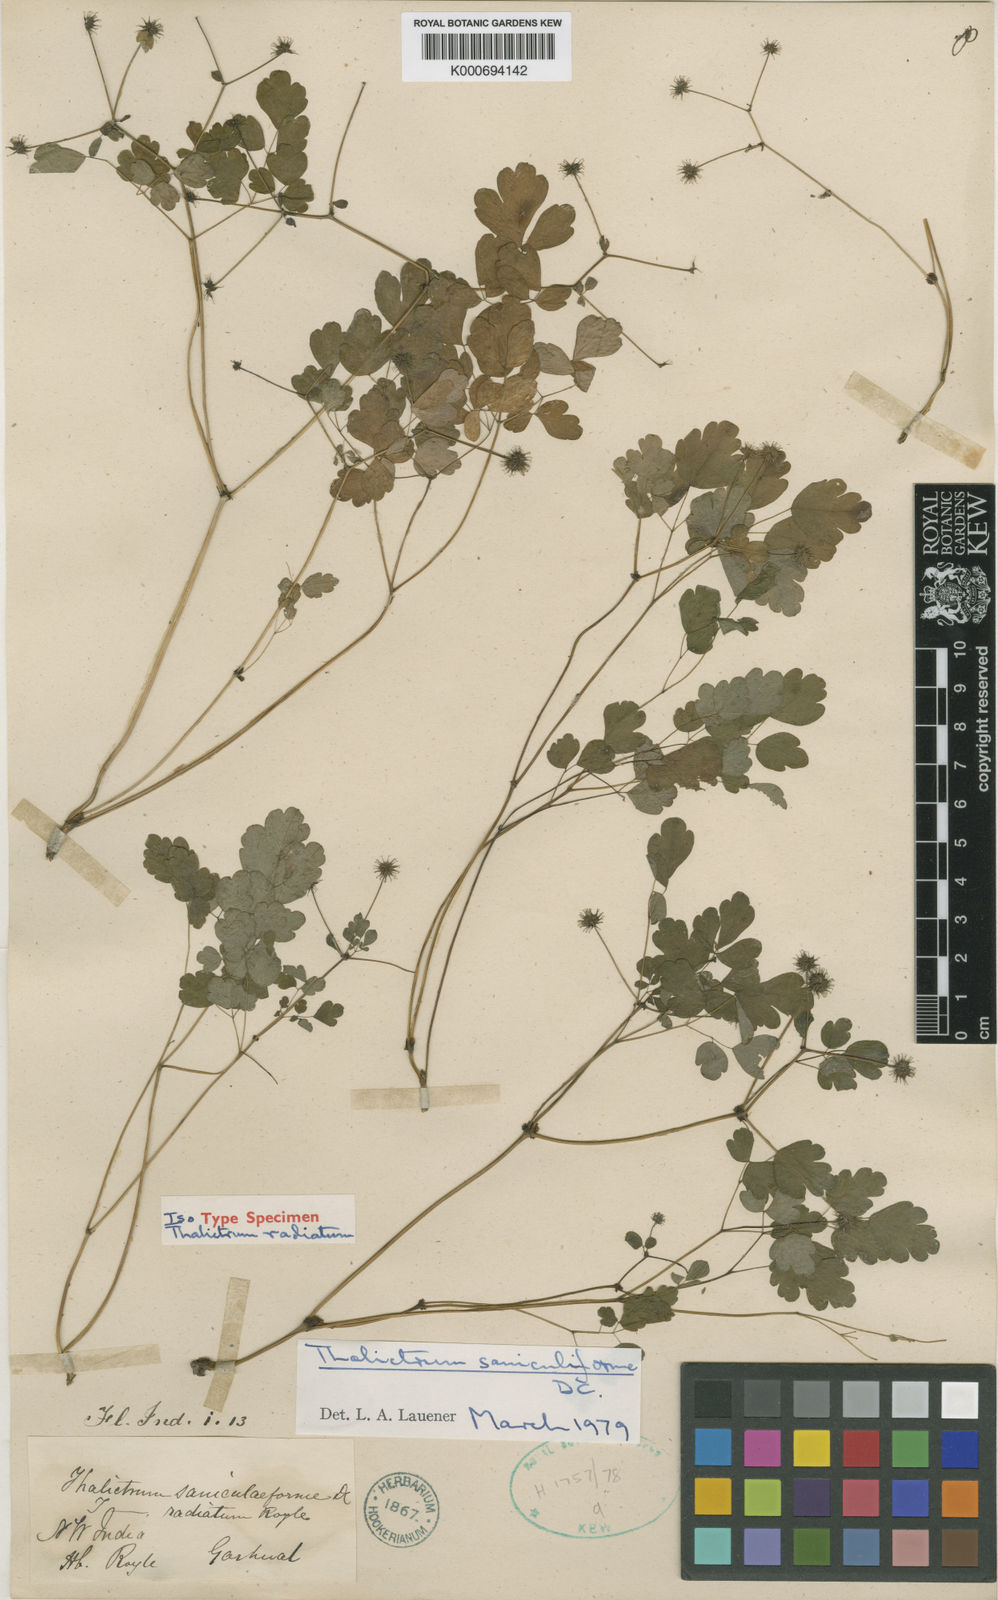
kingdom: Plantae
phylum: Tracheophyta
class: Magnoliopsida
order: Ranunculales
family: Ranunculaceae
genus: Thalictrum
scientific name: Thalictrum saniculiforme
